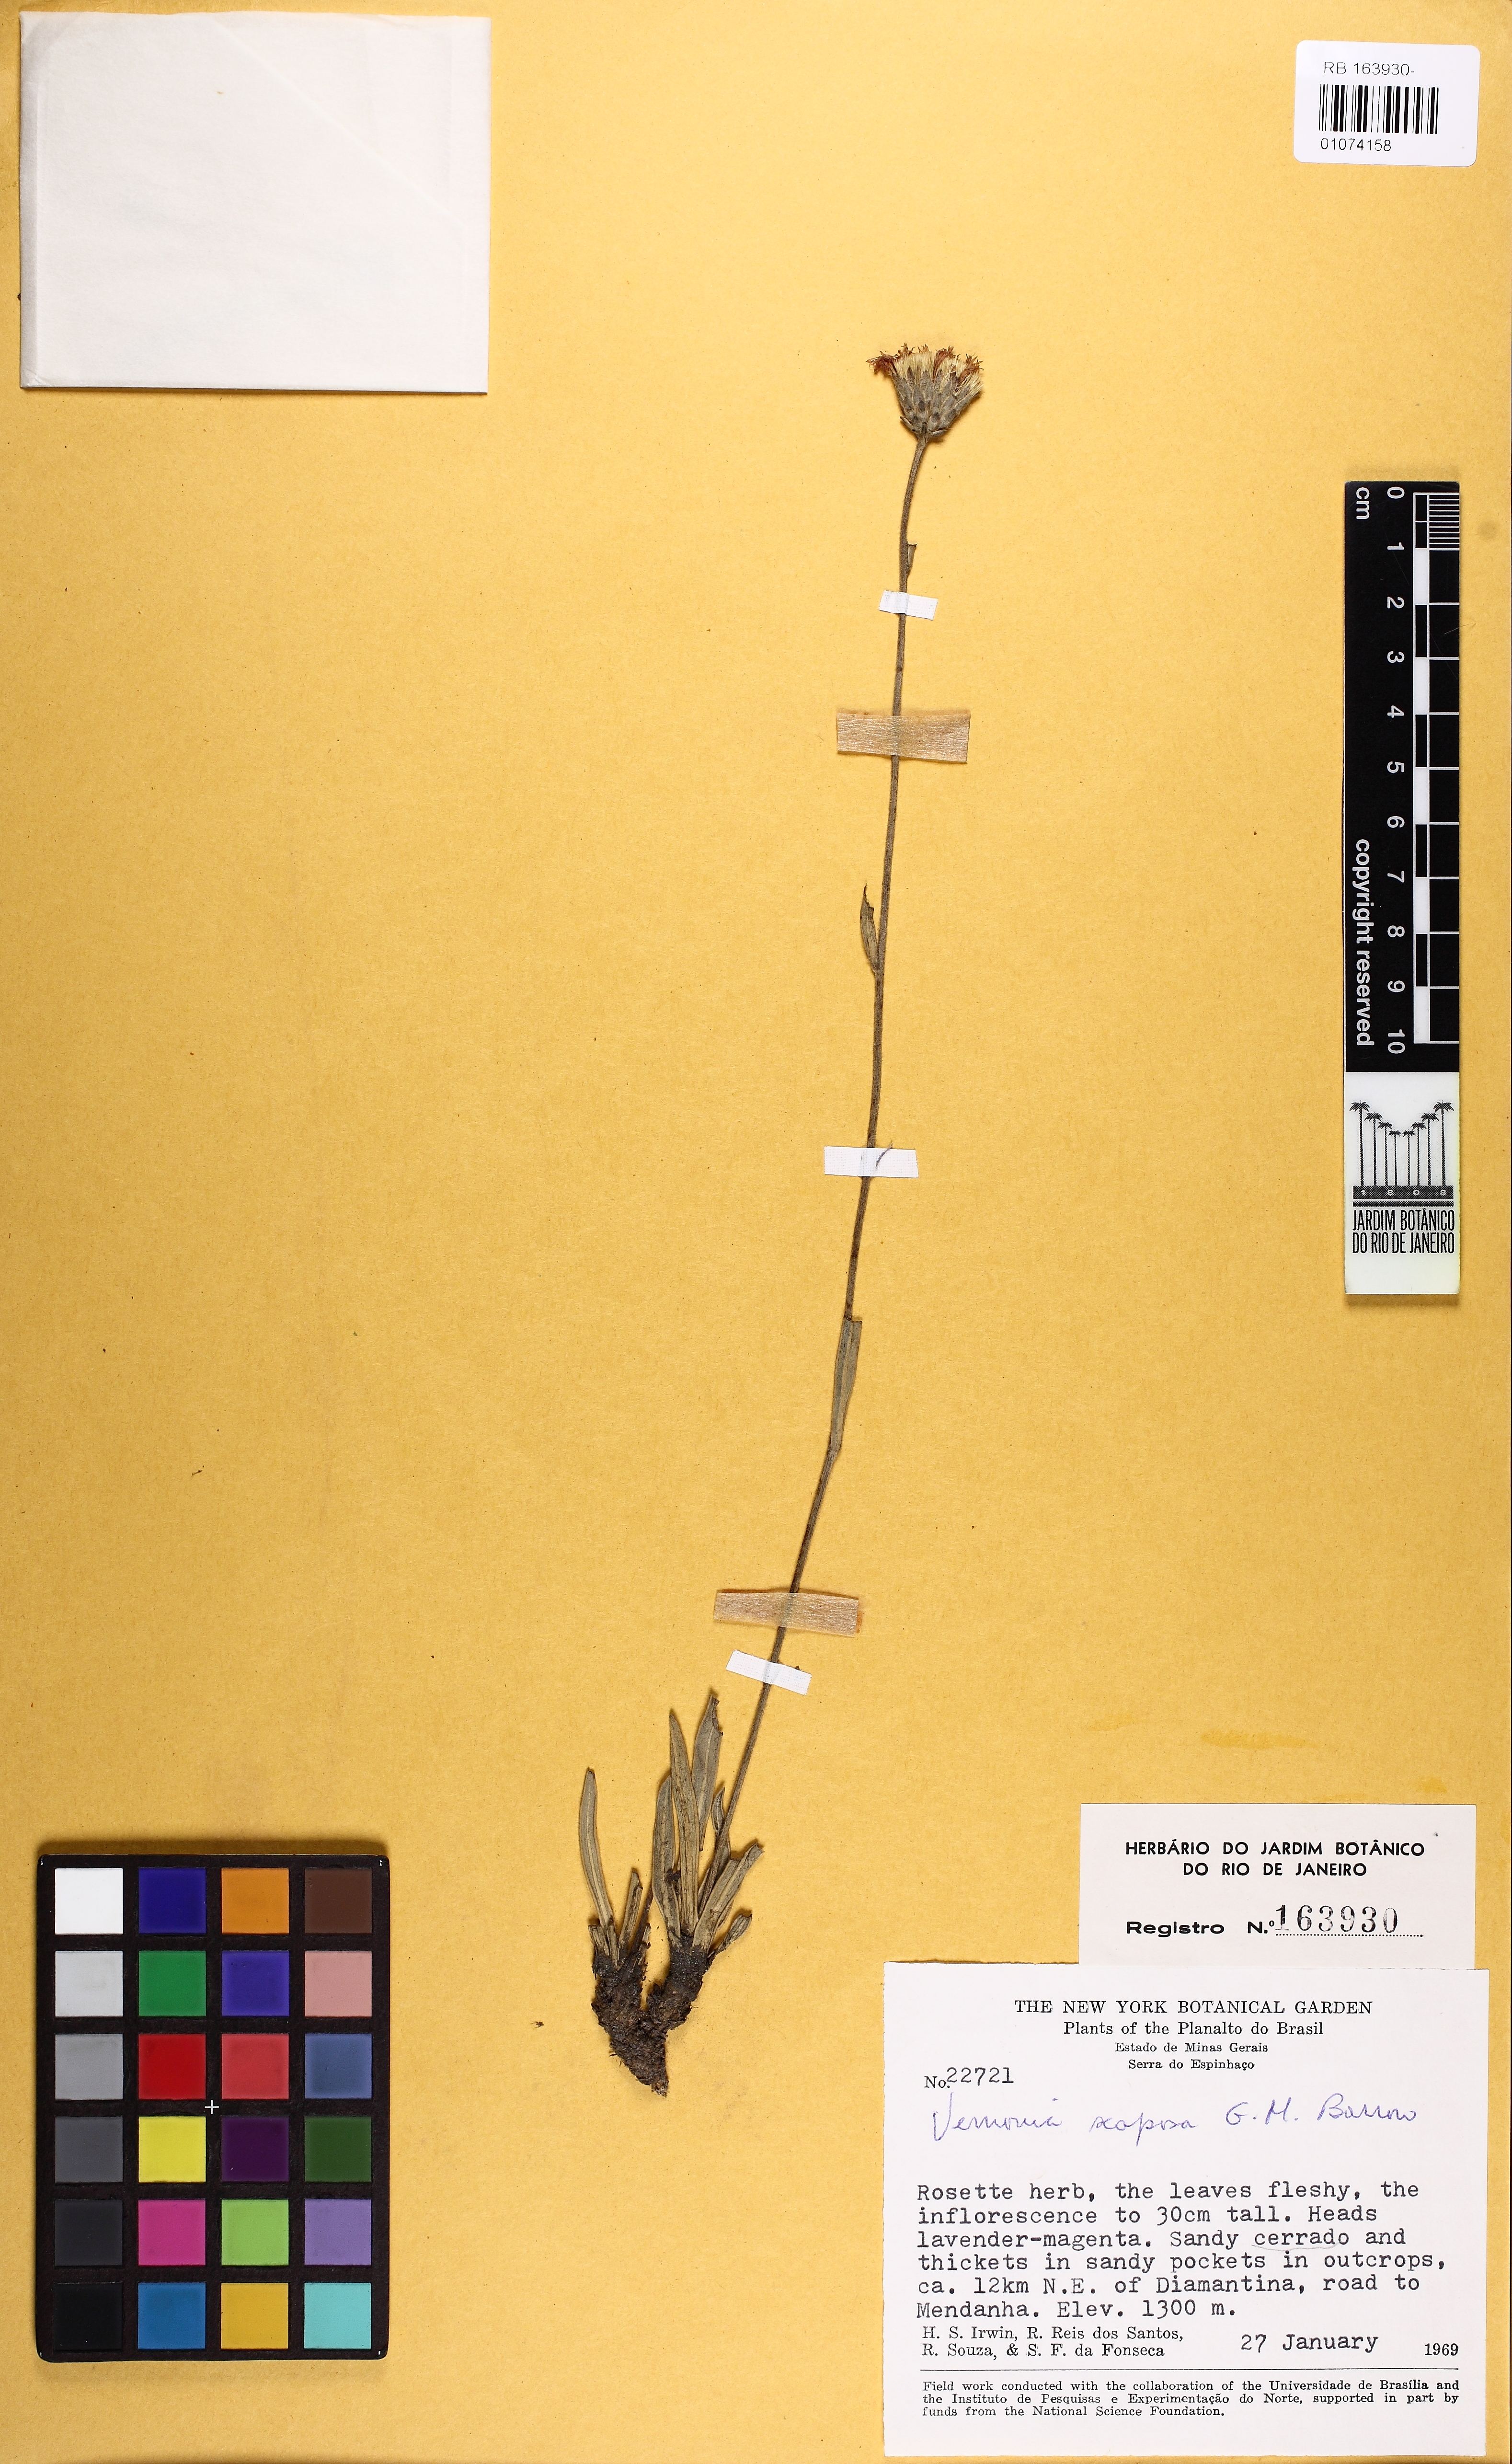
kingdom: Plantae
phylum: Tracheophyta
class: Magnoliopsida
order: Asterales
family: Asteraceae
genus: Lessingianthus
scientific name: Lessingianthus scaposus
